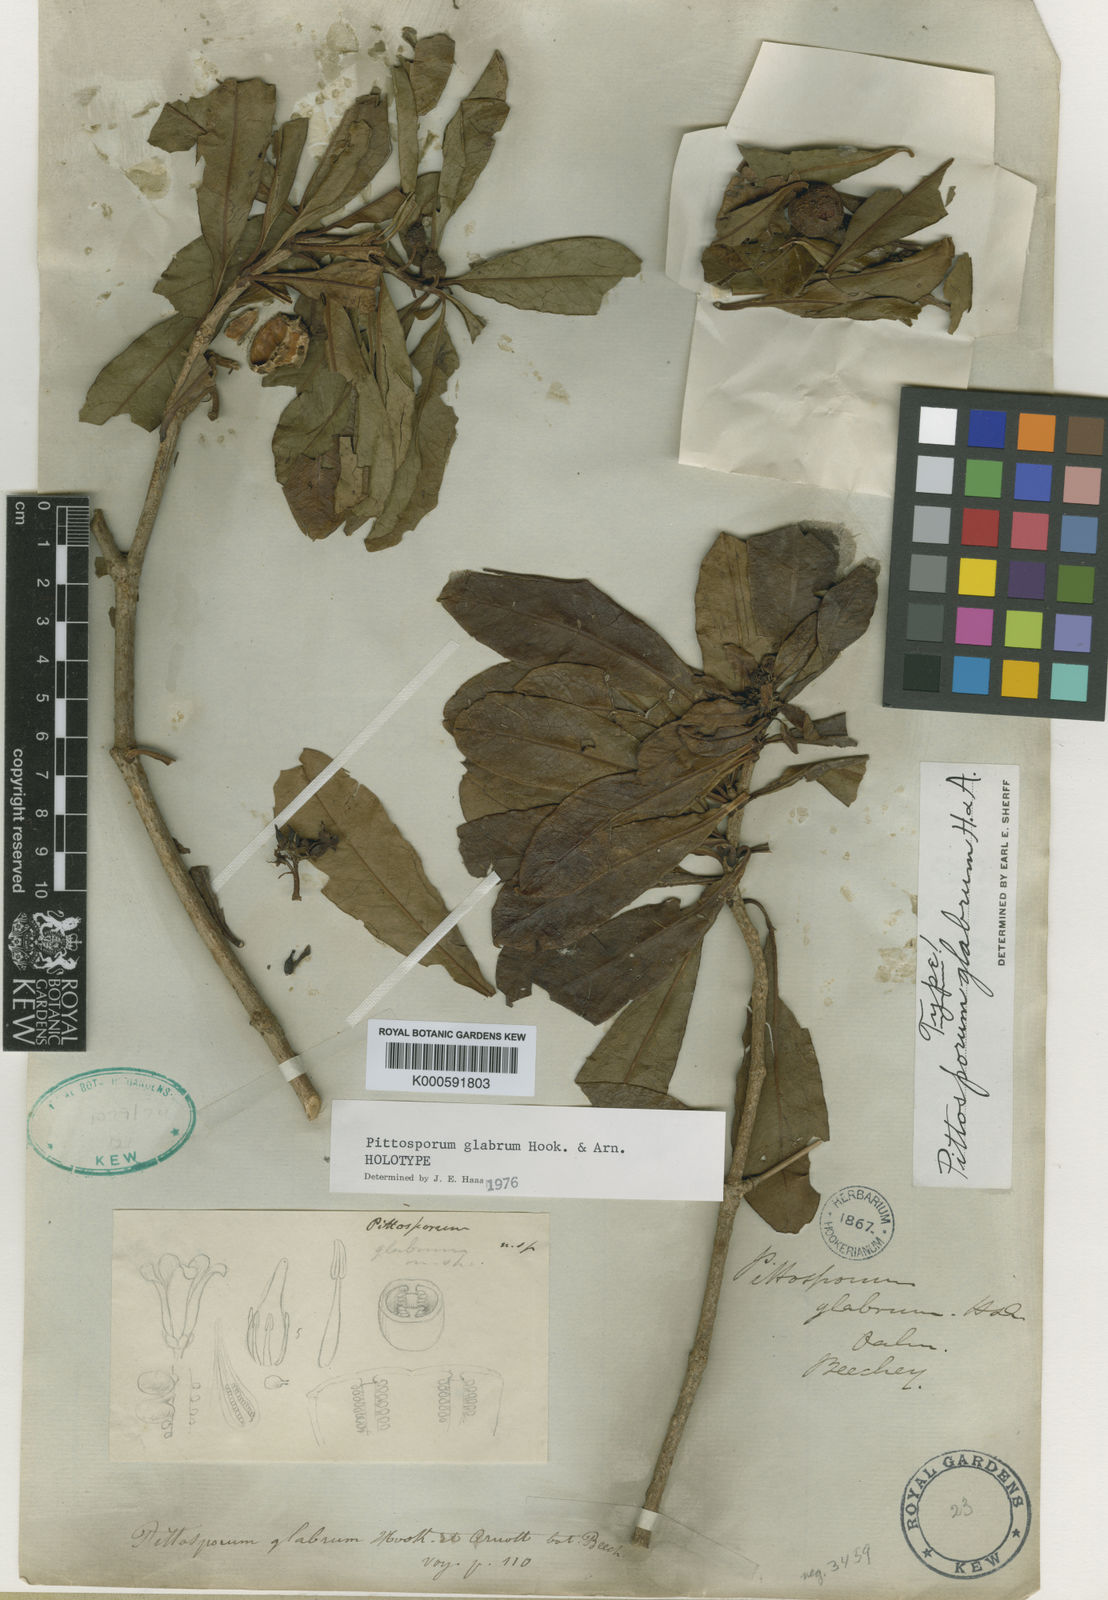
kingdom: Plantae
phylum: Tracheophyta
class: Magnoliopsida
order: Apiales
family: Pittosporaceae
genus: Pittosporum
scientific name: Pittosporum glabrum
